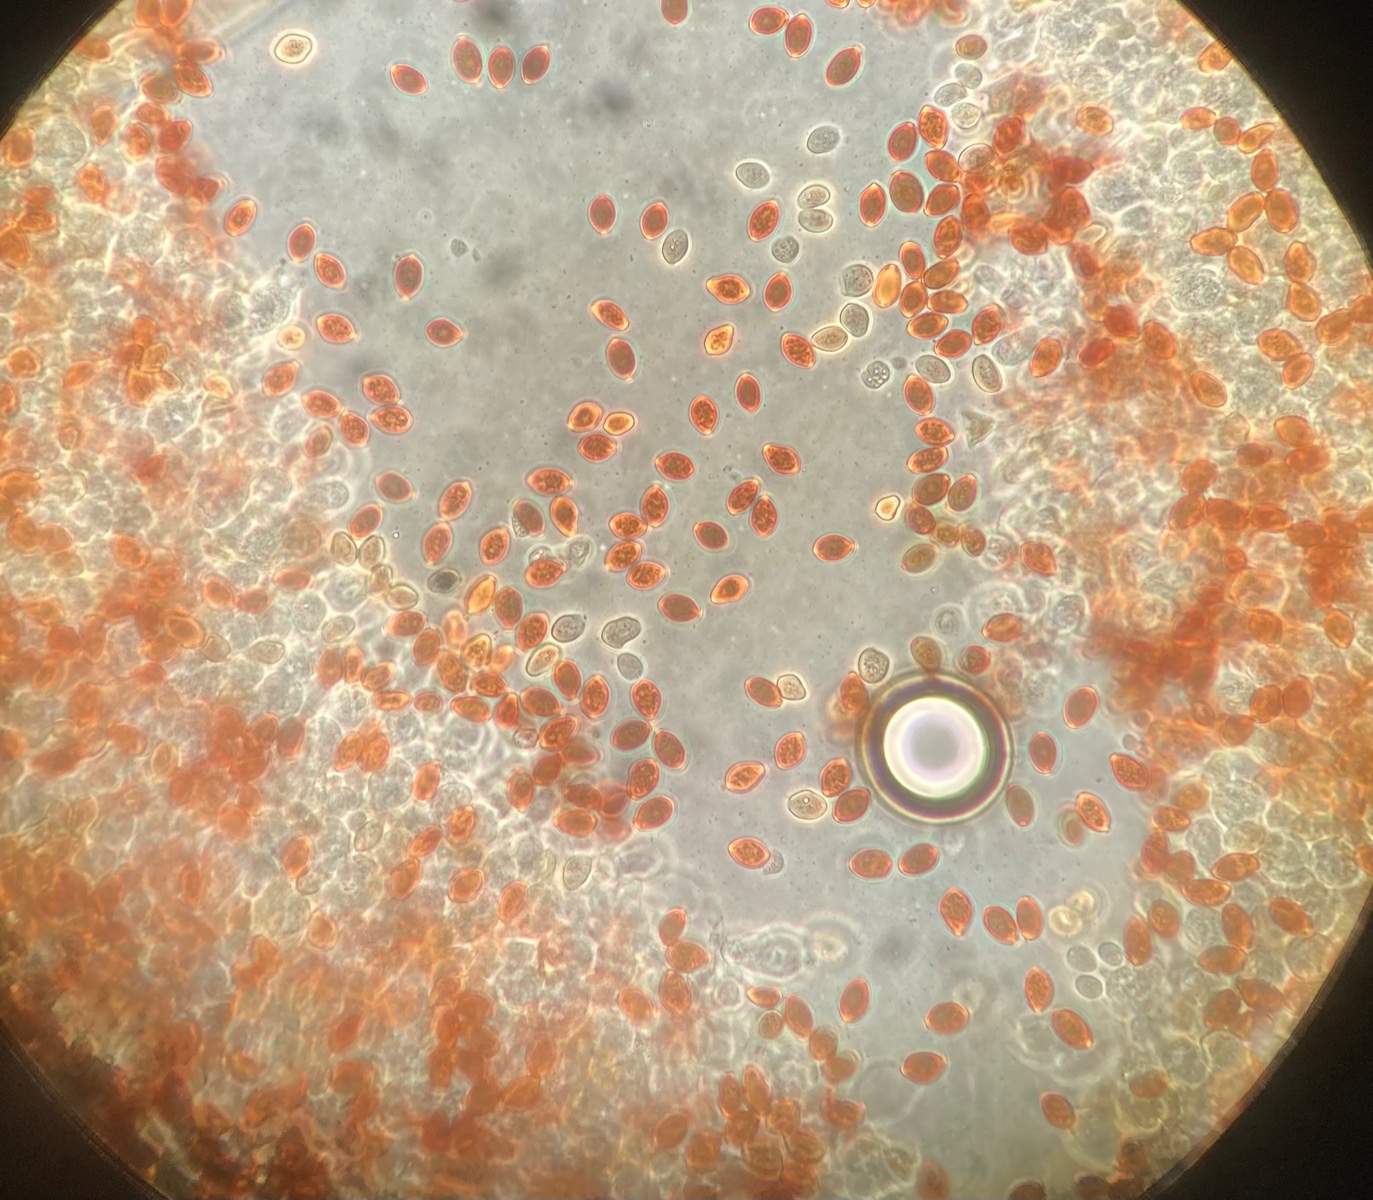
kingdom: Fungi
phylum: Basidiomycota
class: Agaricomycetes
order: Agaricales
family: Bolbitiaceae
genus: Conocybe
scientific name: Conocybe brunneidisca
